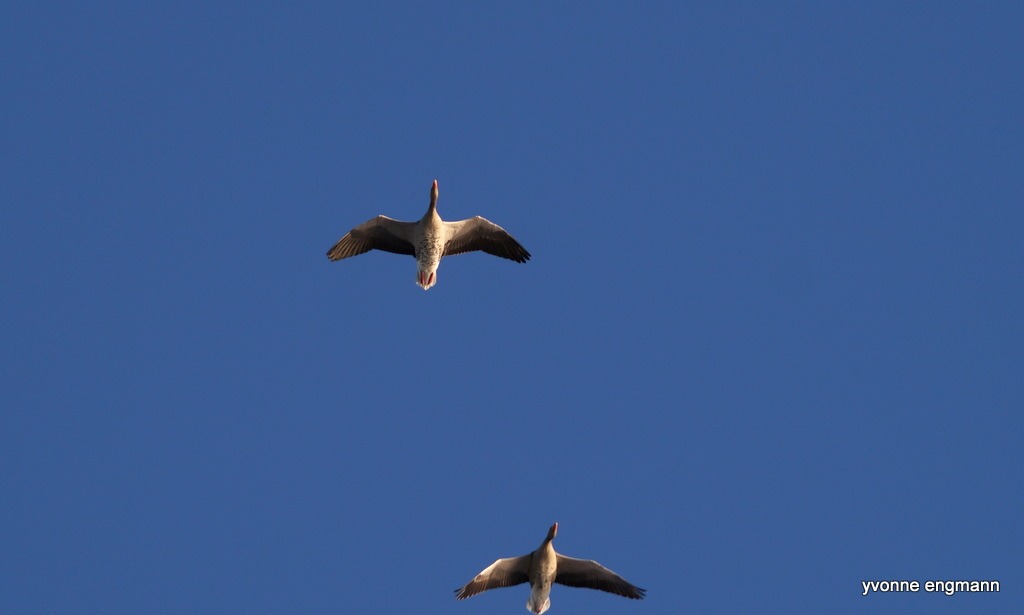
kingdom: Animalia
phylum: Chordata
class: Aves
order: Anseriformes
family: Anatidae
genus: Anser
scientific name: Anser anser
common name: Grågås
